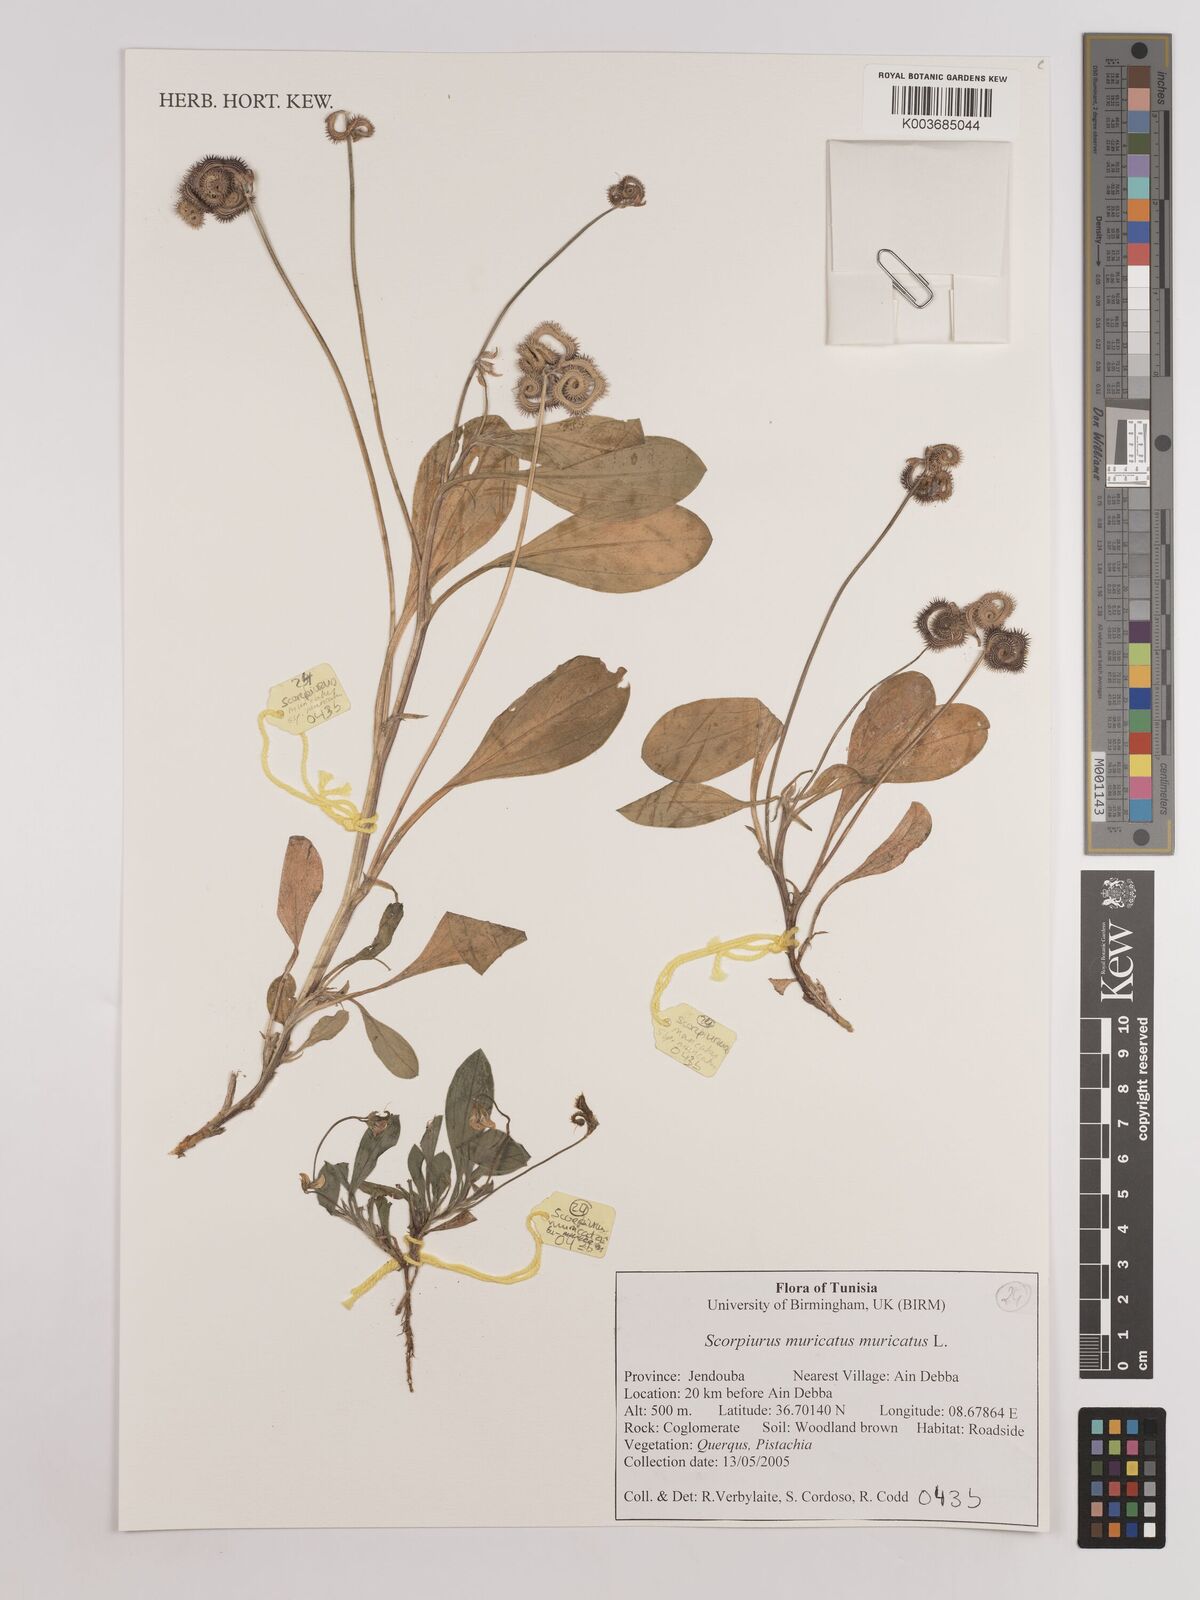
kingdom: Plantae
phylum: Tracheophyta
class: Magnoliopsida
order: Fabales
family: Fabaceae
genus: Scorpiurus
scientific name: Scorpiurus muricatus
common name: Caterpillar-plant
